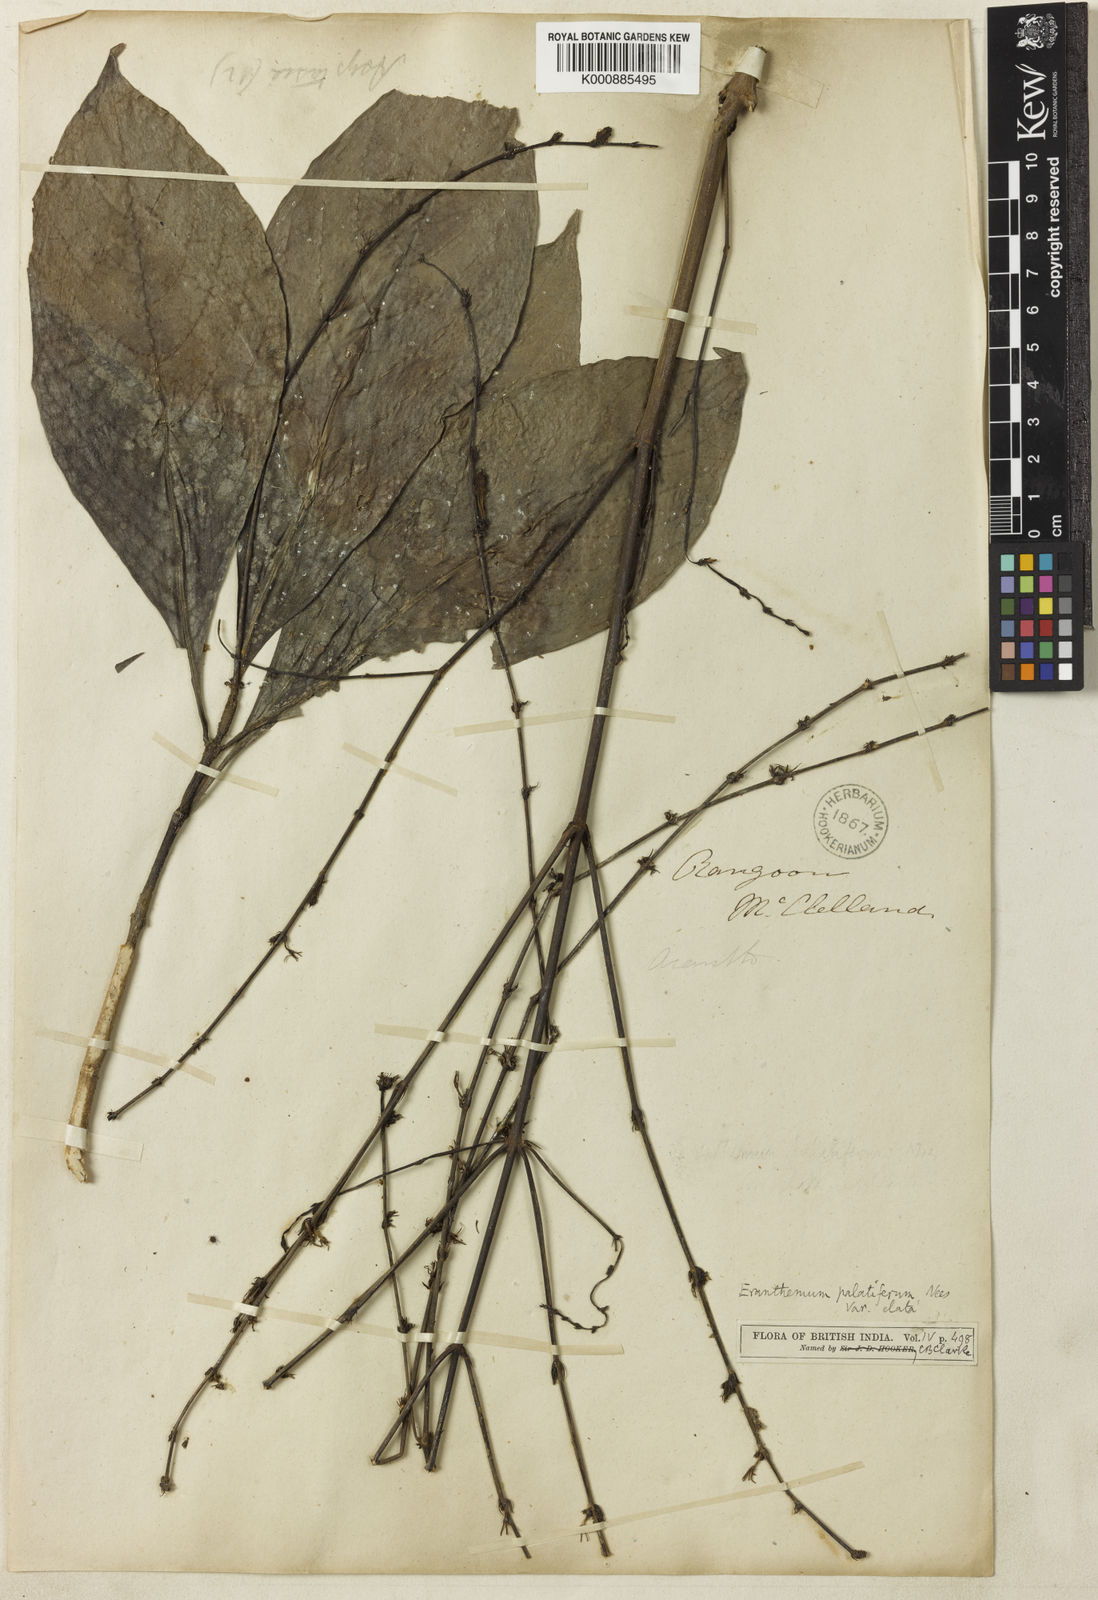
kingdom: Plantae
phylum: Tracheophyta
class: Magnoliopsida
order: Lamiales
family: Acanthaceae
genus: Pseuderanthemum
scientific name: Pseuderanthemum
